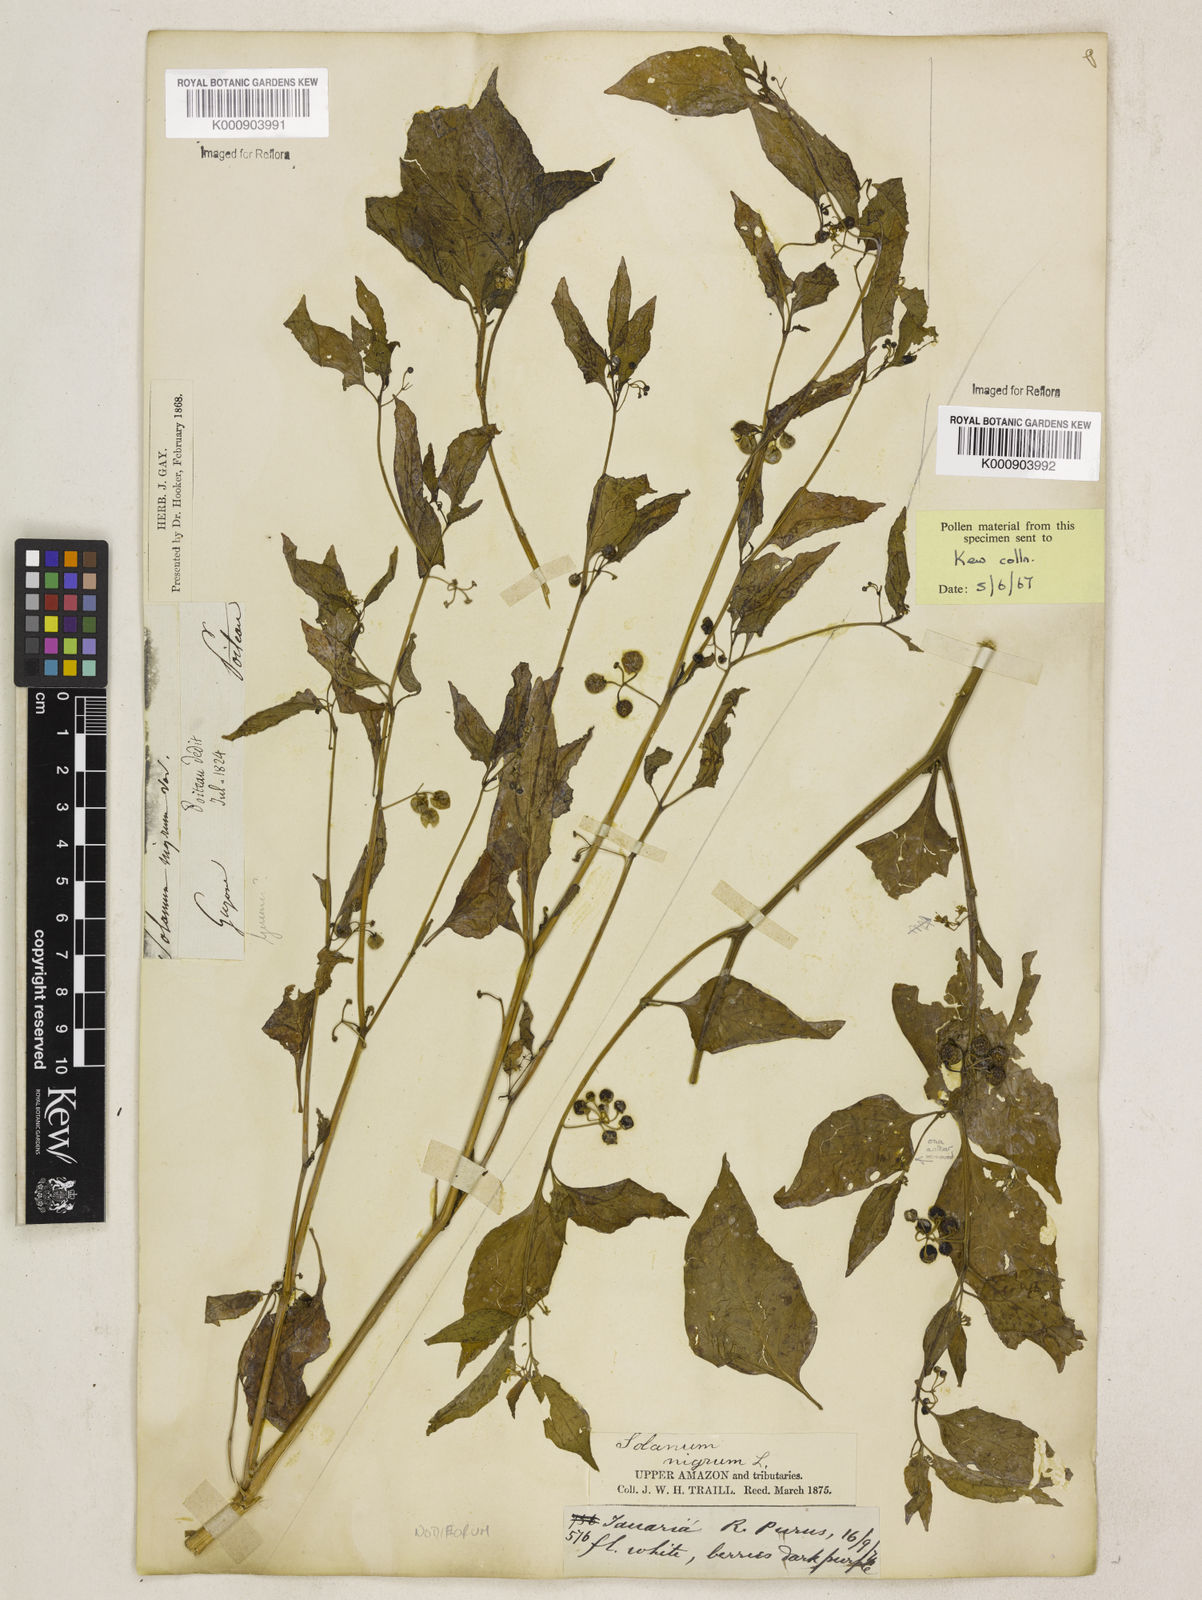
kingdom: Plantae
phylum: Tracheophyta
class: Magnoliopsida
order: Solanales
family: Solanaceae
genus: Solanum
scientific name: Solanum americanum
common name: American black nightshade
